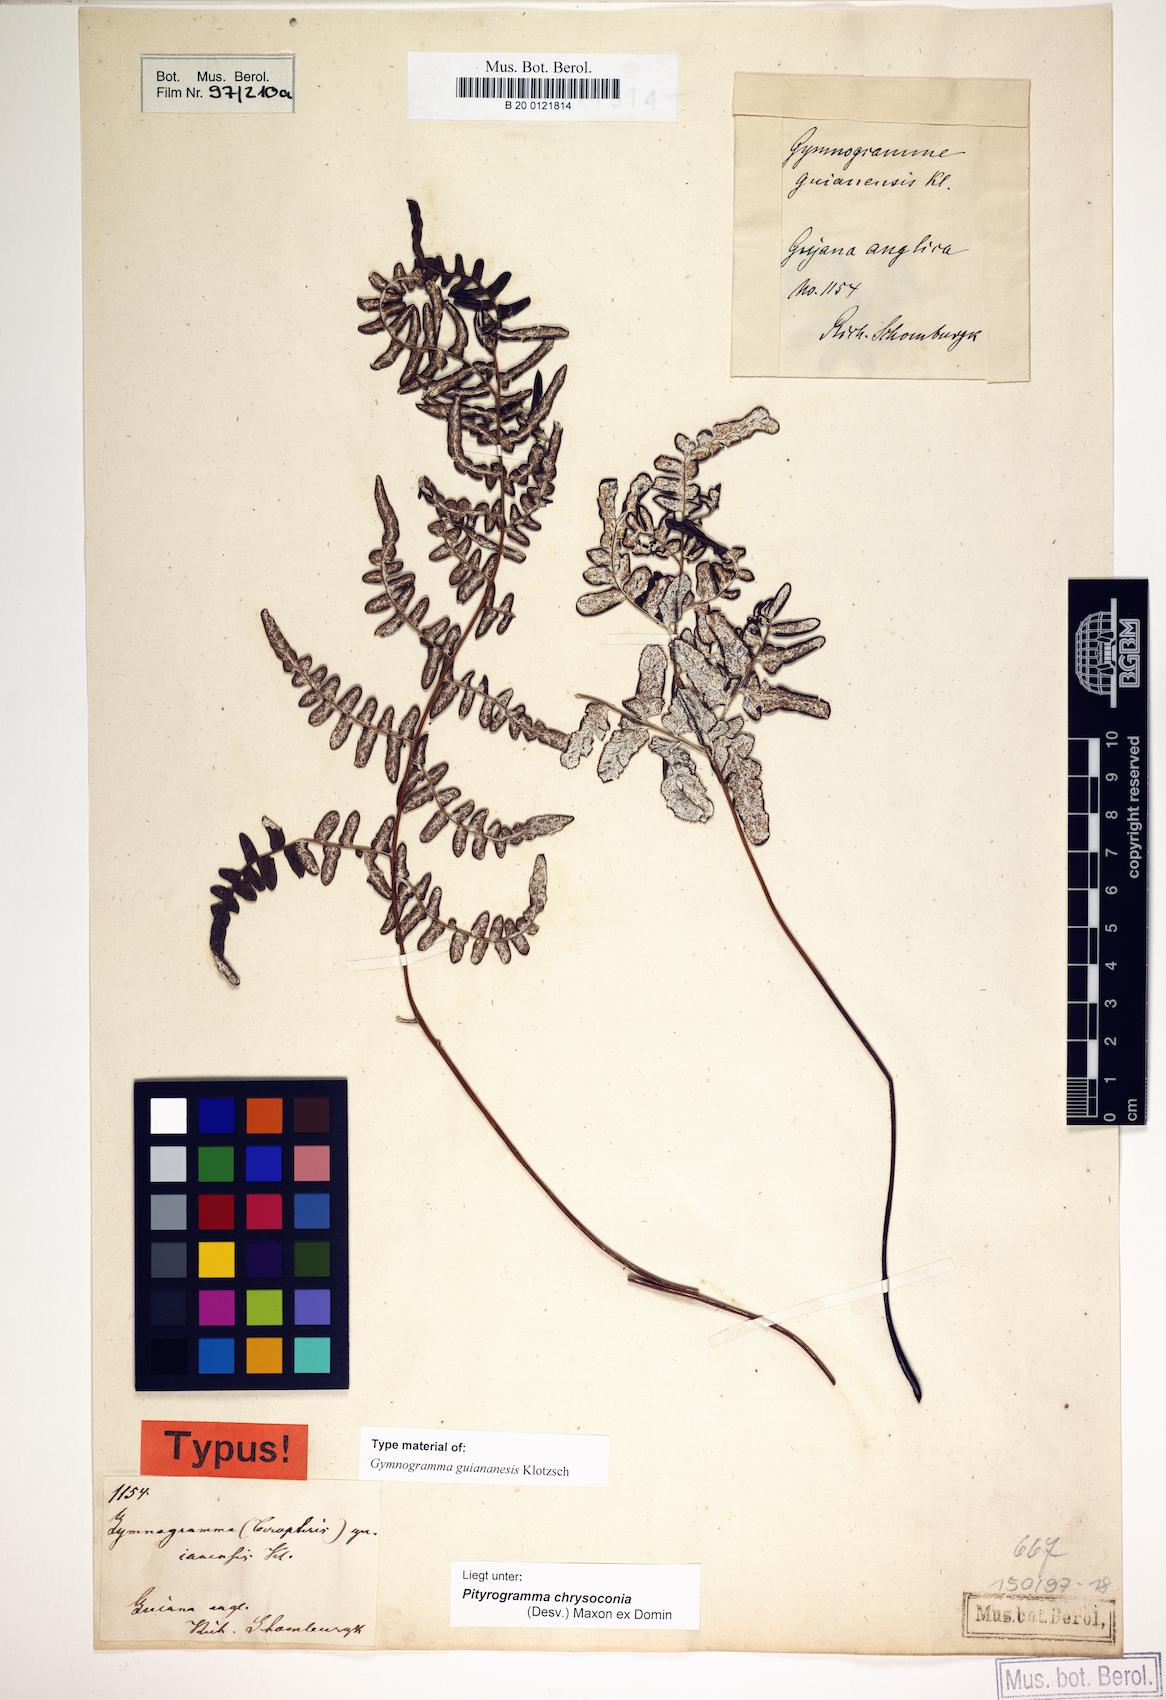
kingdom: Plantae
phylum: Tracheophyta
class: Polypodiopsida
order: Polypodiales
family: Pteridaceae
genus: Pityrogramma
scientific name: Pityrogramma chrysoconia
